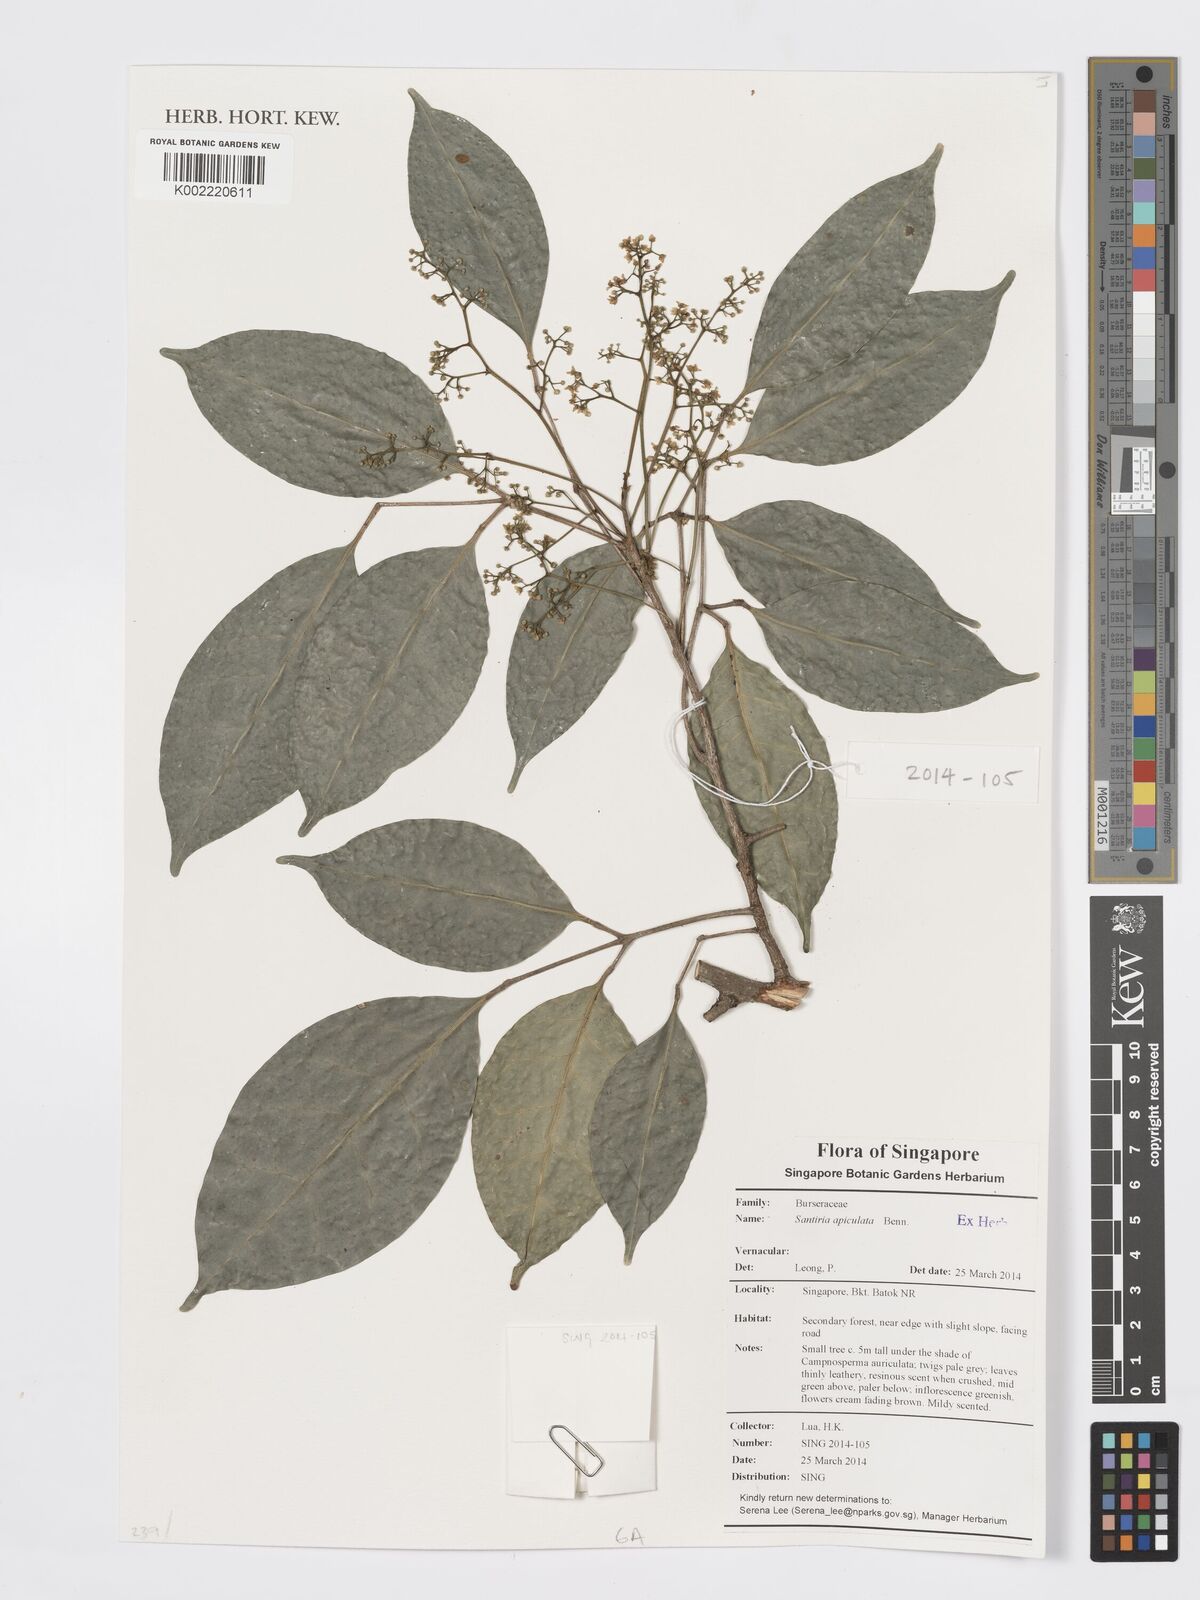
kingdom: Plantae
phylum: Tracheophyta
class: Magnoliopsida
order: Sapindales
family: Burseraceae
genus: Santiria
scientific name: Santiria apiculata
